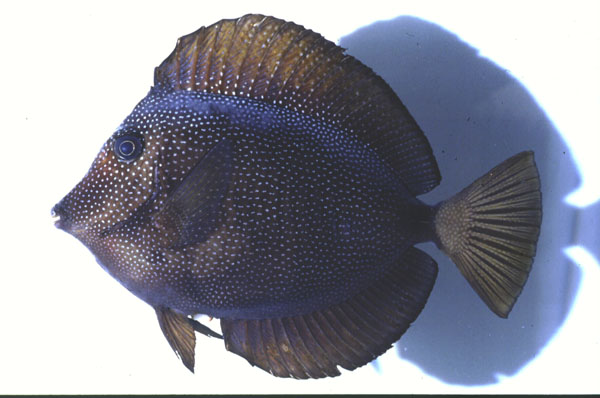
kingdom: Animalia
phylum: Chordata
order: Perciformes
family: Acanthuridae
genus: Zebrasoma
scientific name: Zebrasoma gemmatum
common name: Gem surgeonfish
